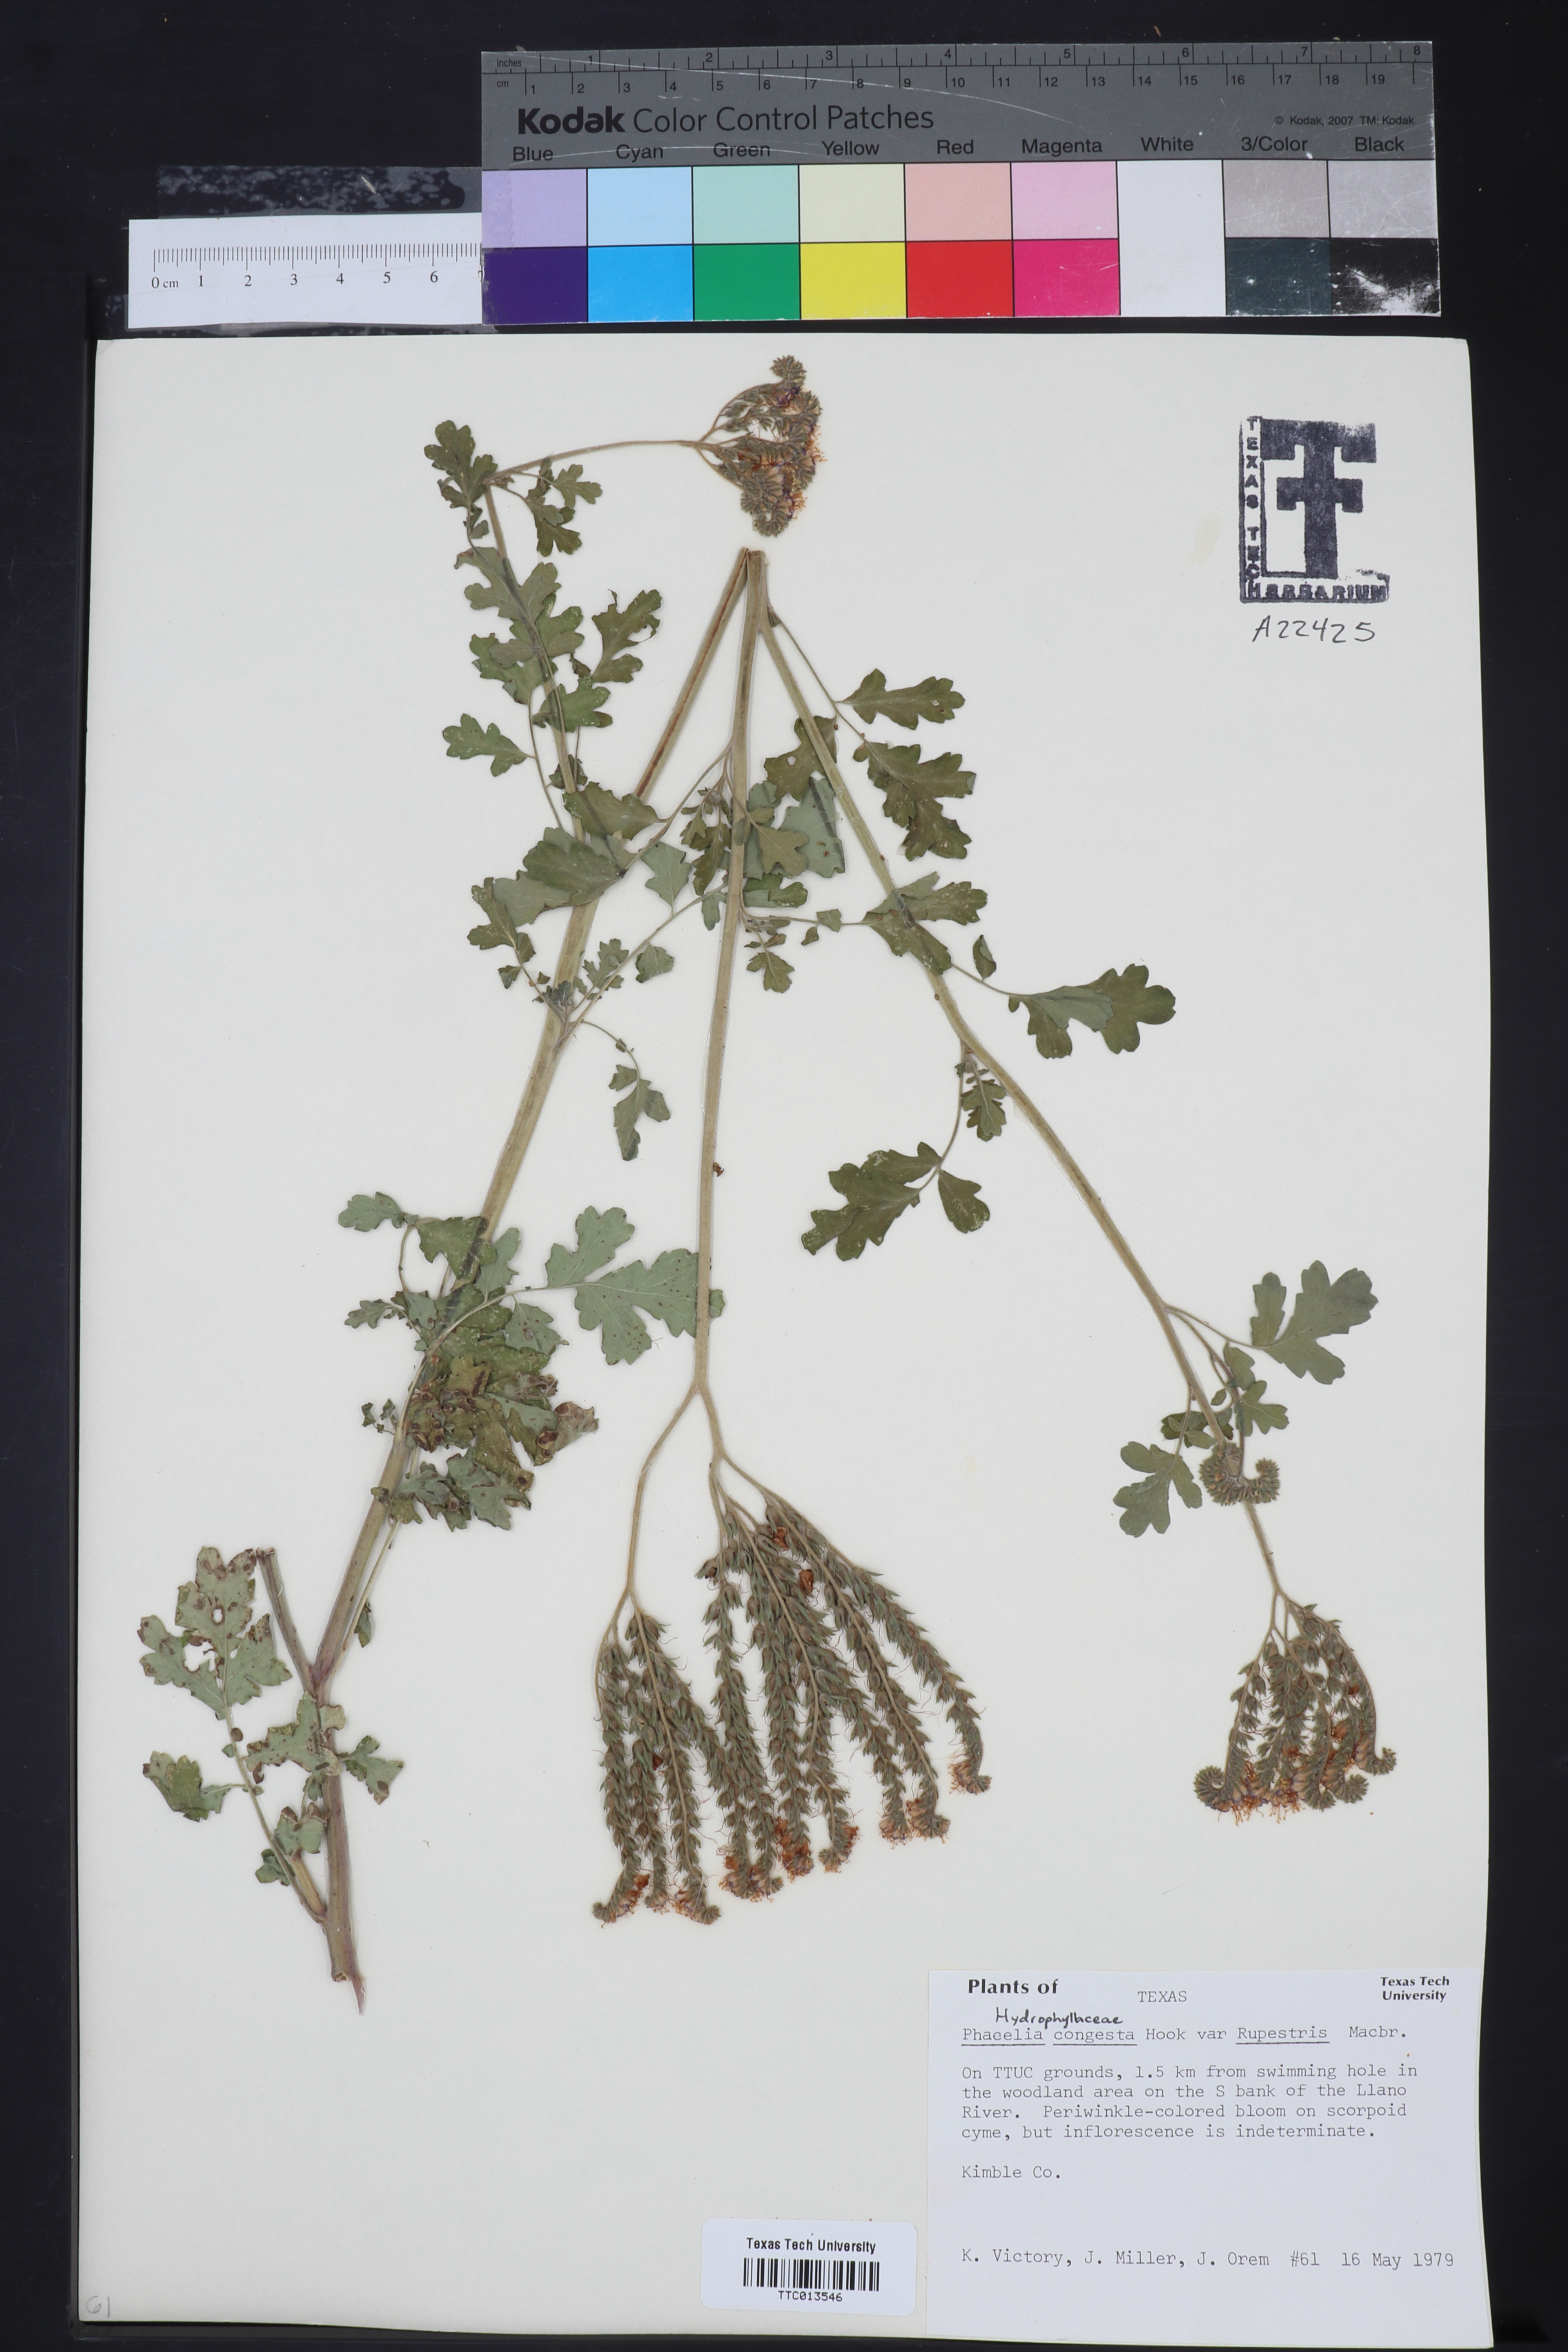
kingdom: Plantae
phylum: Tracheophyta
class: Magnoliopsida
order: Boraginales
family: Hydrophyllaceae
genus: Phacelia
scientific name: Phacelia rupestris
